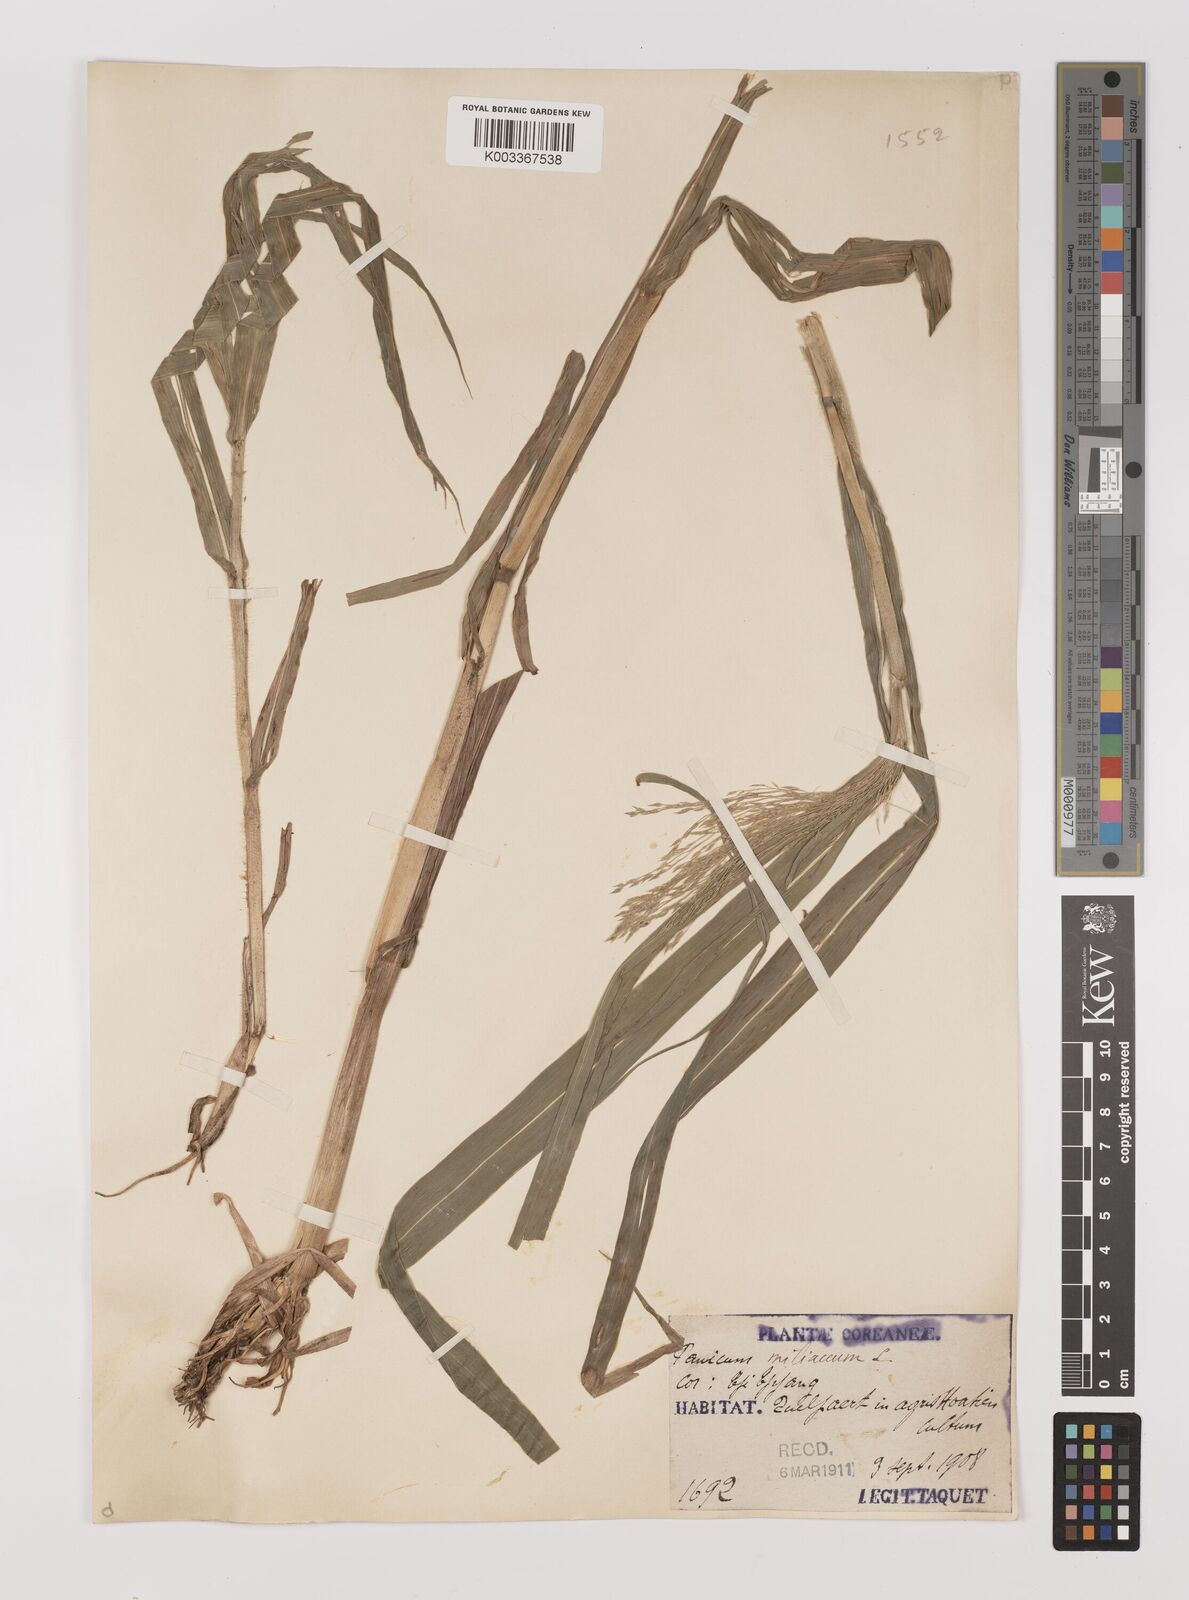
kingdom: Plantae
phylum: Tracheophyta
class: Liliopsida
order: Poales
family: Poaceae
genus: Panicum
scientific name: Panicum miliaceum
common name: Common millet
